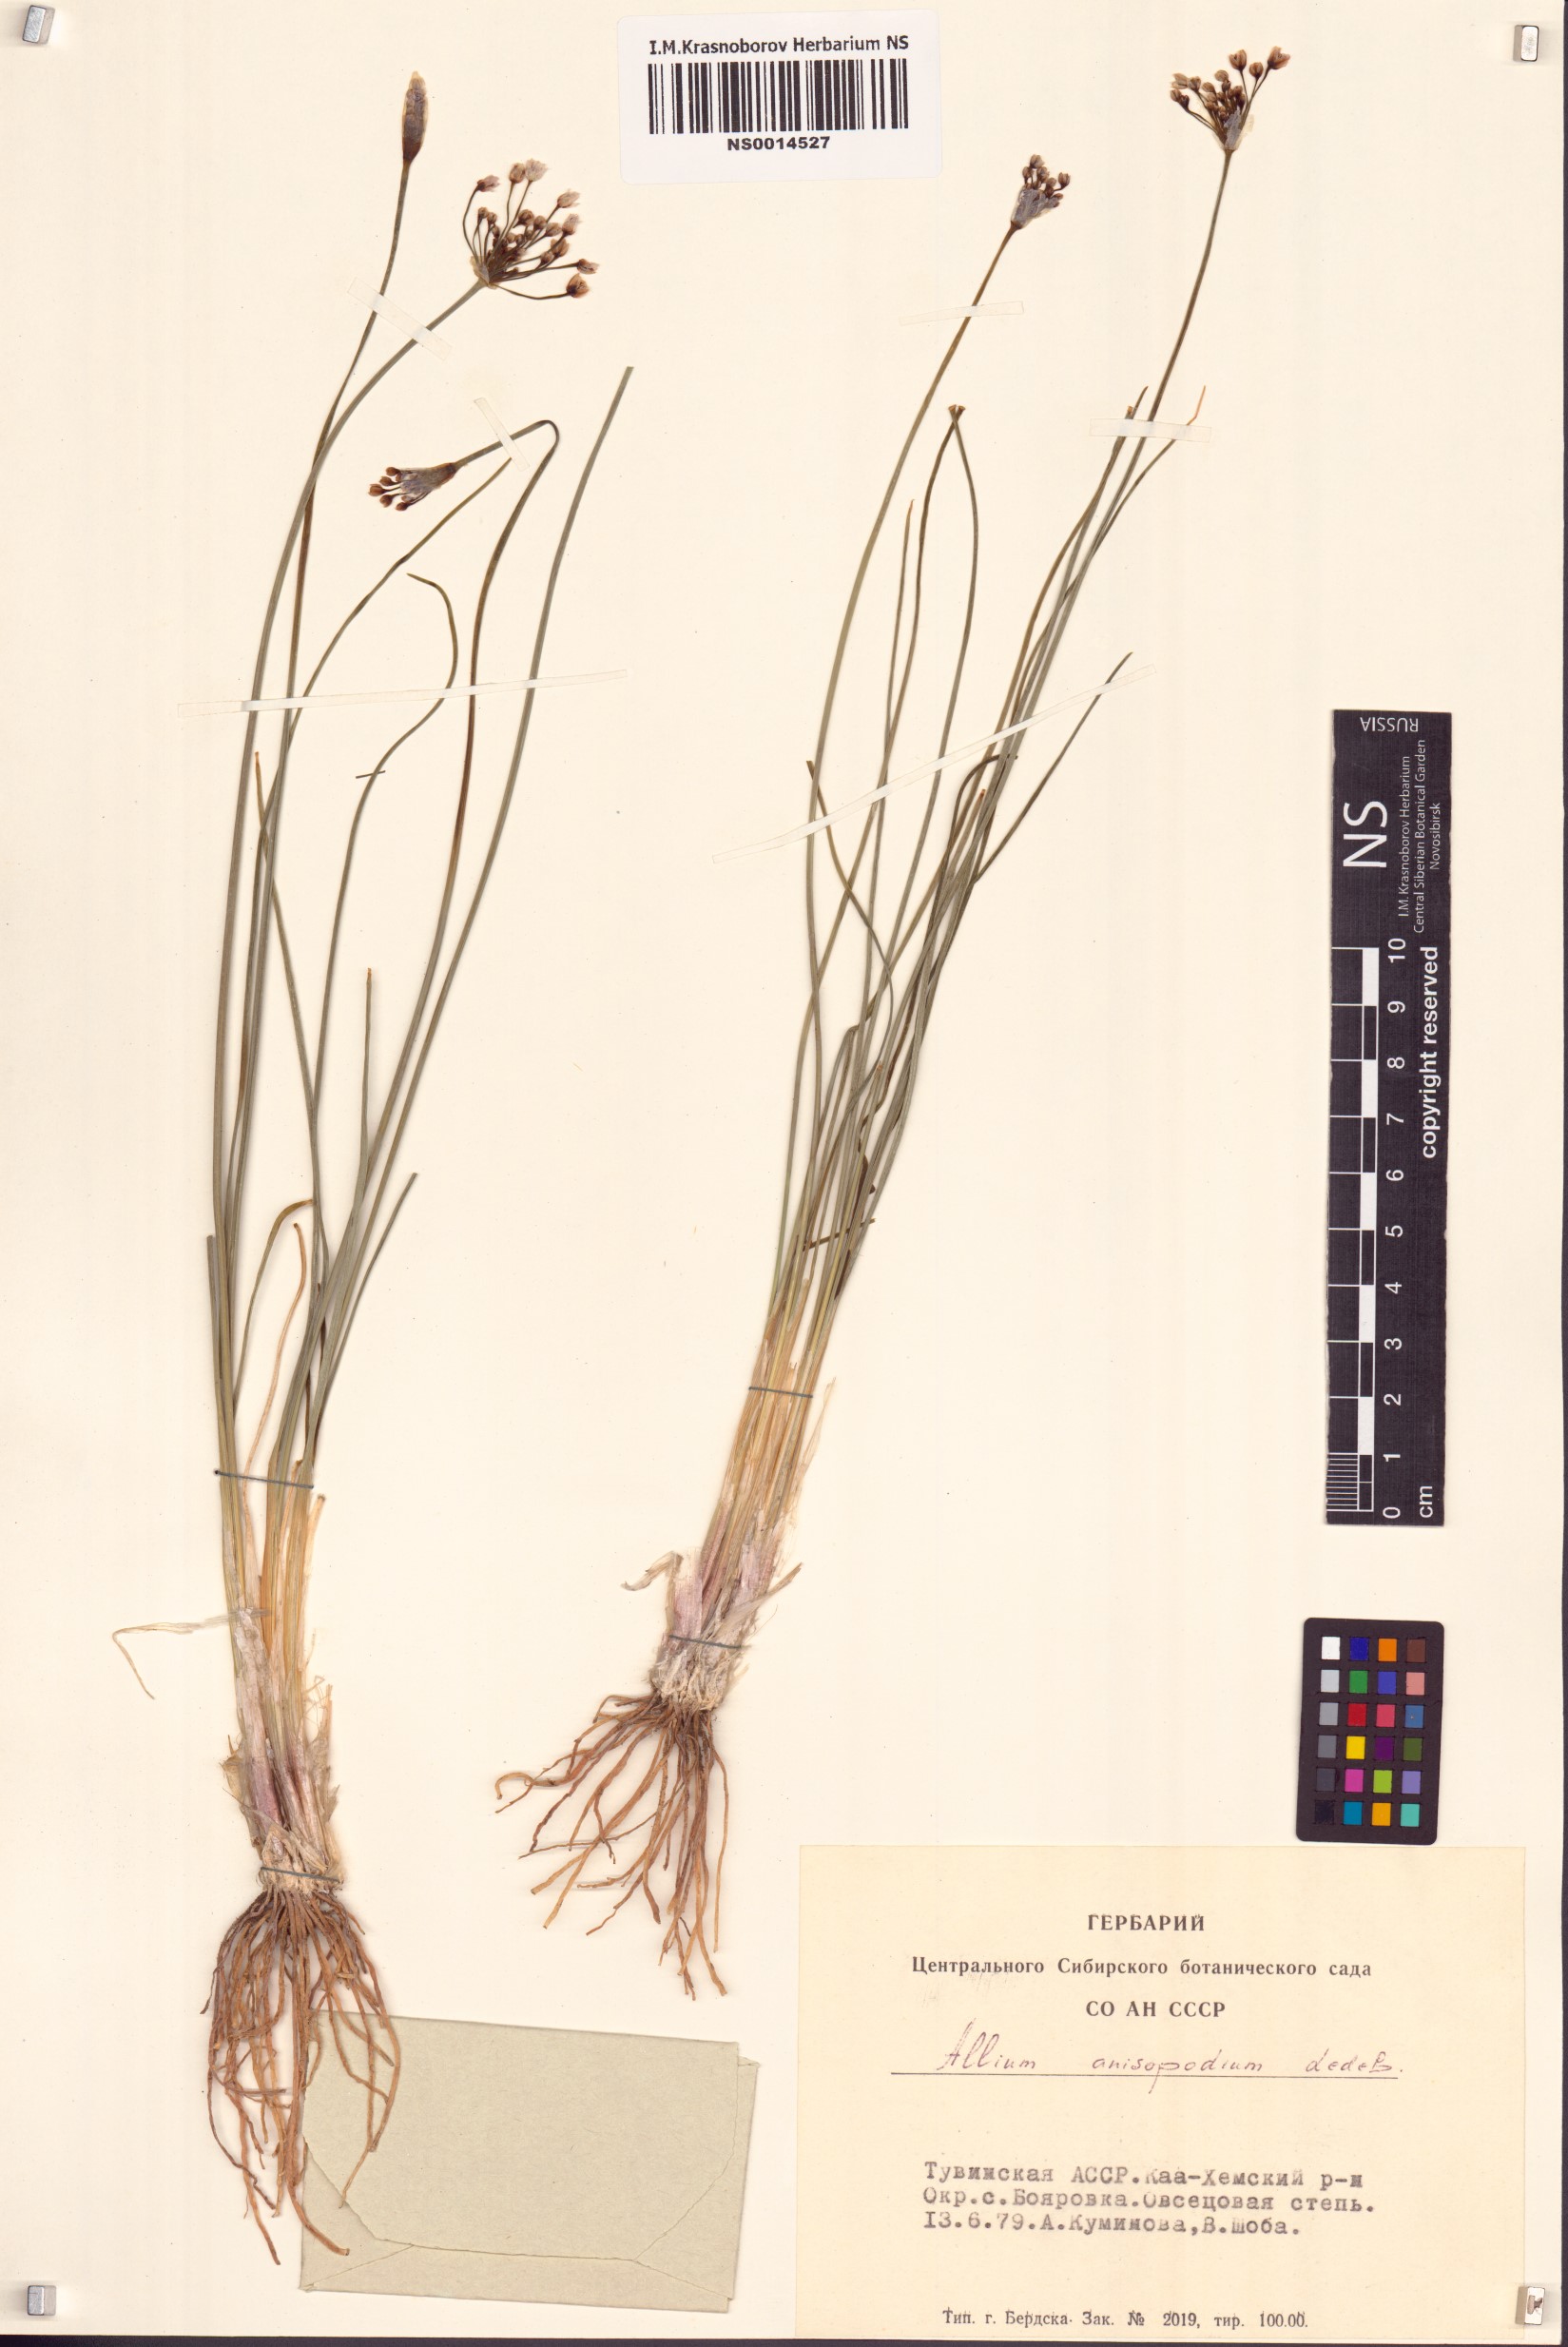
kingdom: Plantae
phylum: Tracheophyta
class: Liliopsida
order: Asparagales
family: Amaryllidaceae
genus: Allium
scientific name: Allium anisopodium
